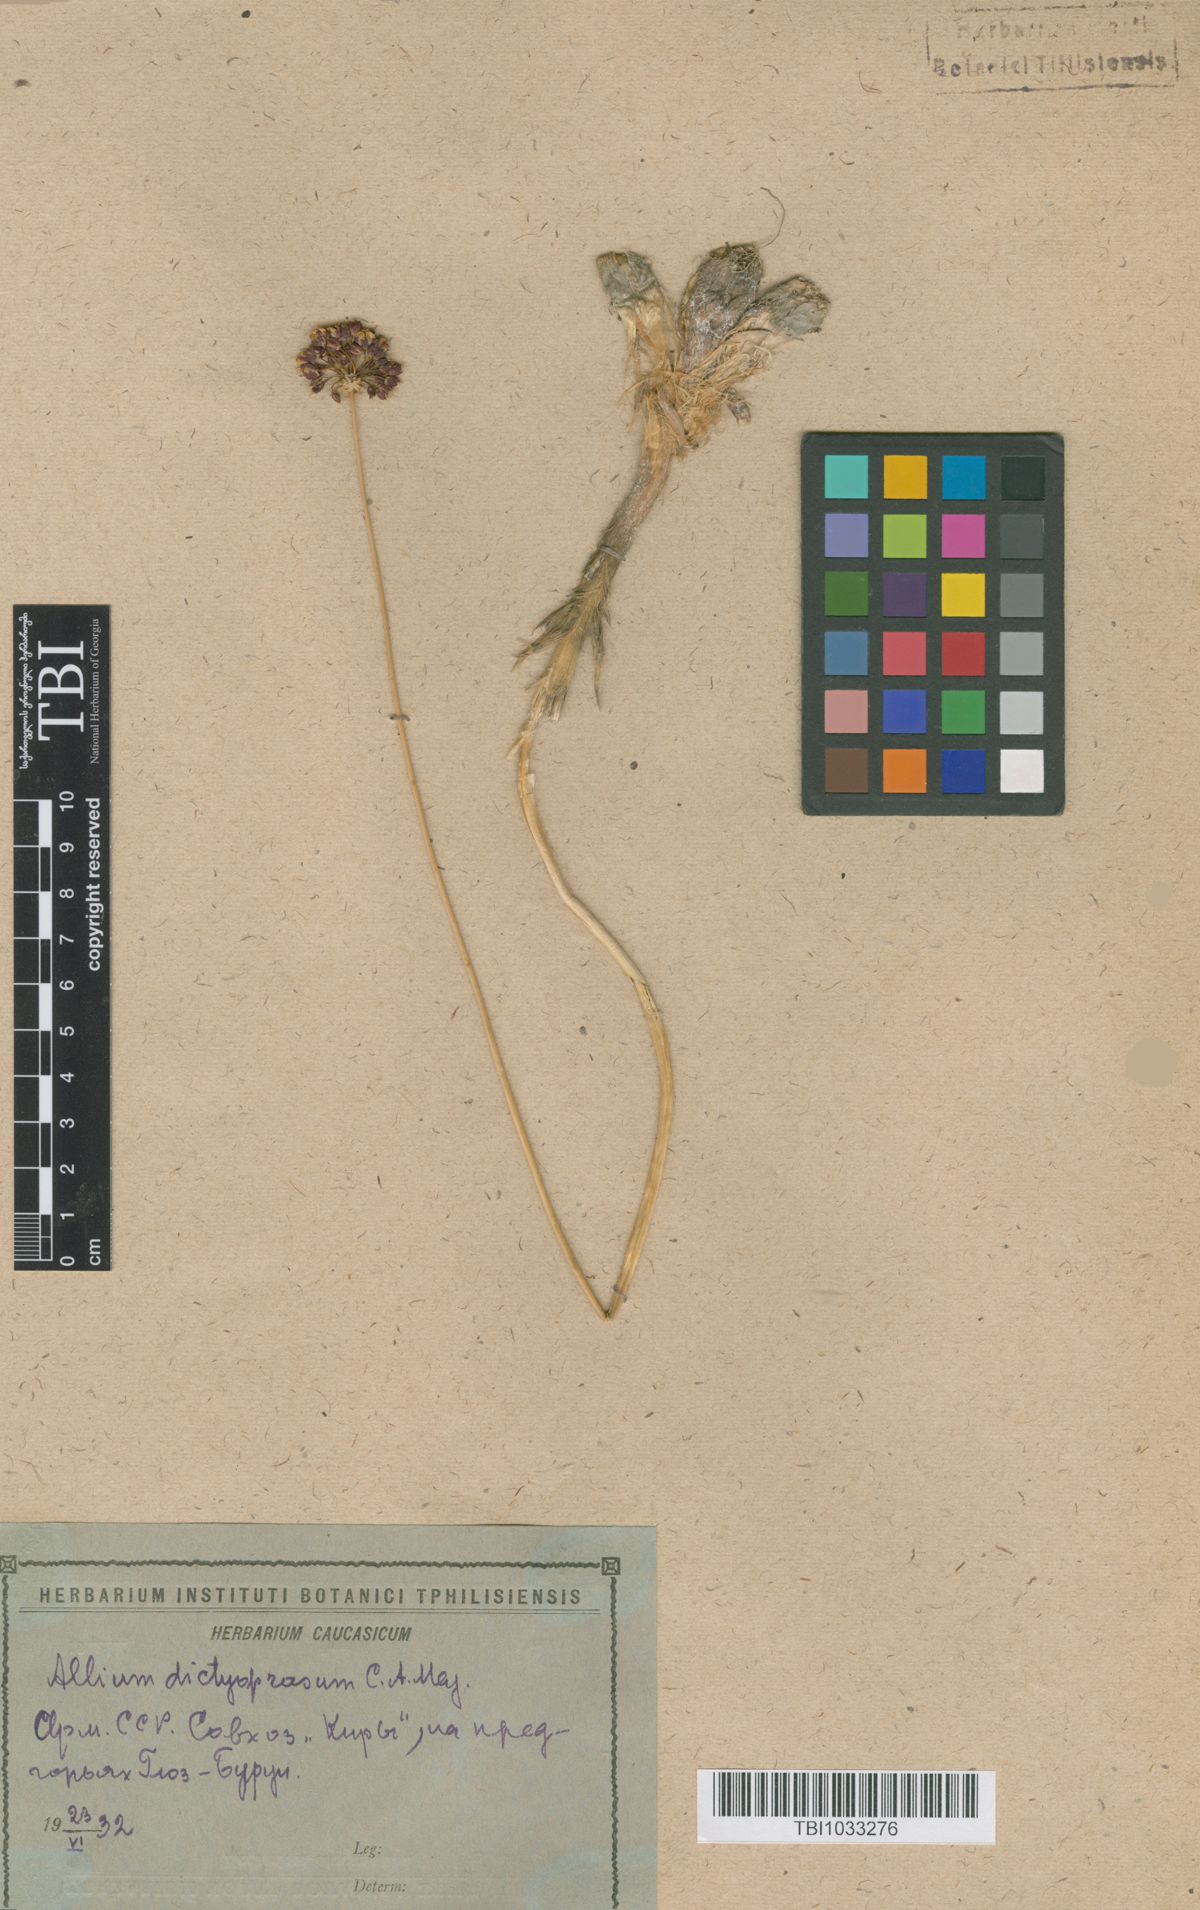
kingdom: Plantae
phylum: Tracheophyta
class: Liliopsida
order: Asparagales
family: Amaryllidaceae
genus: Allium
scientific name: Allium dictyoprasum
